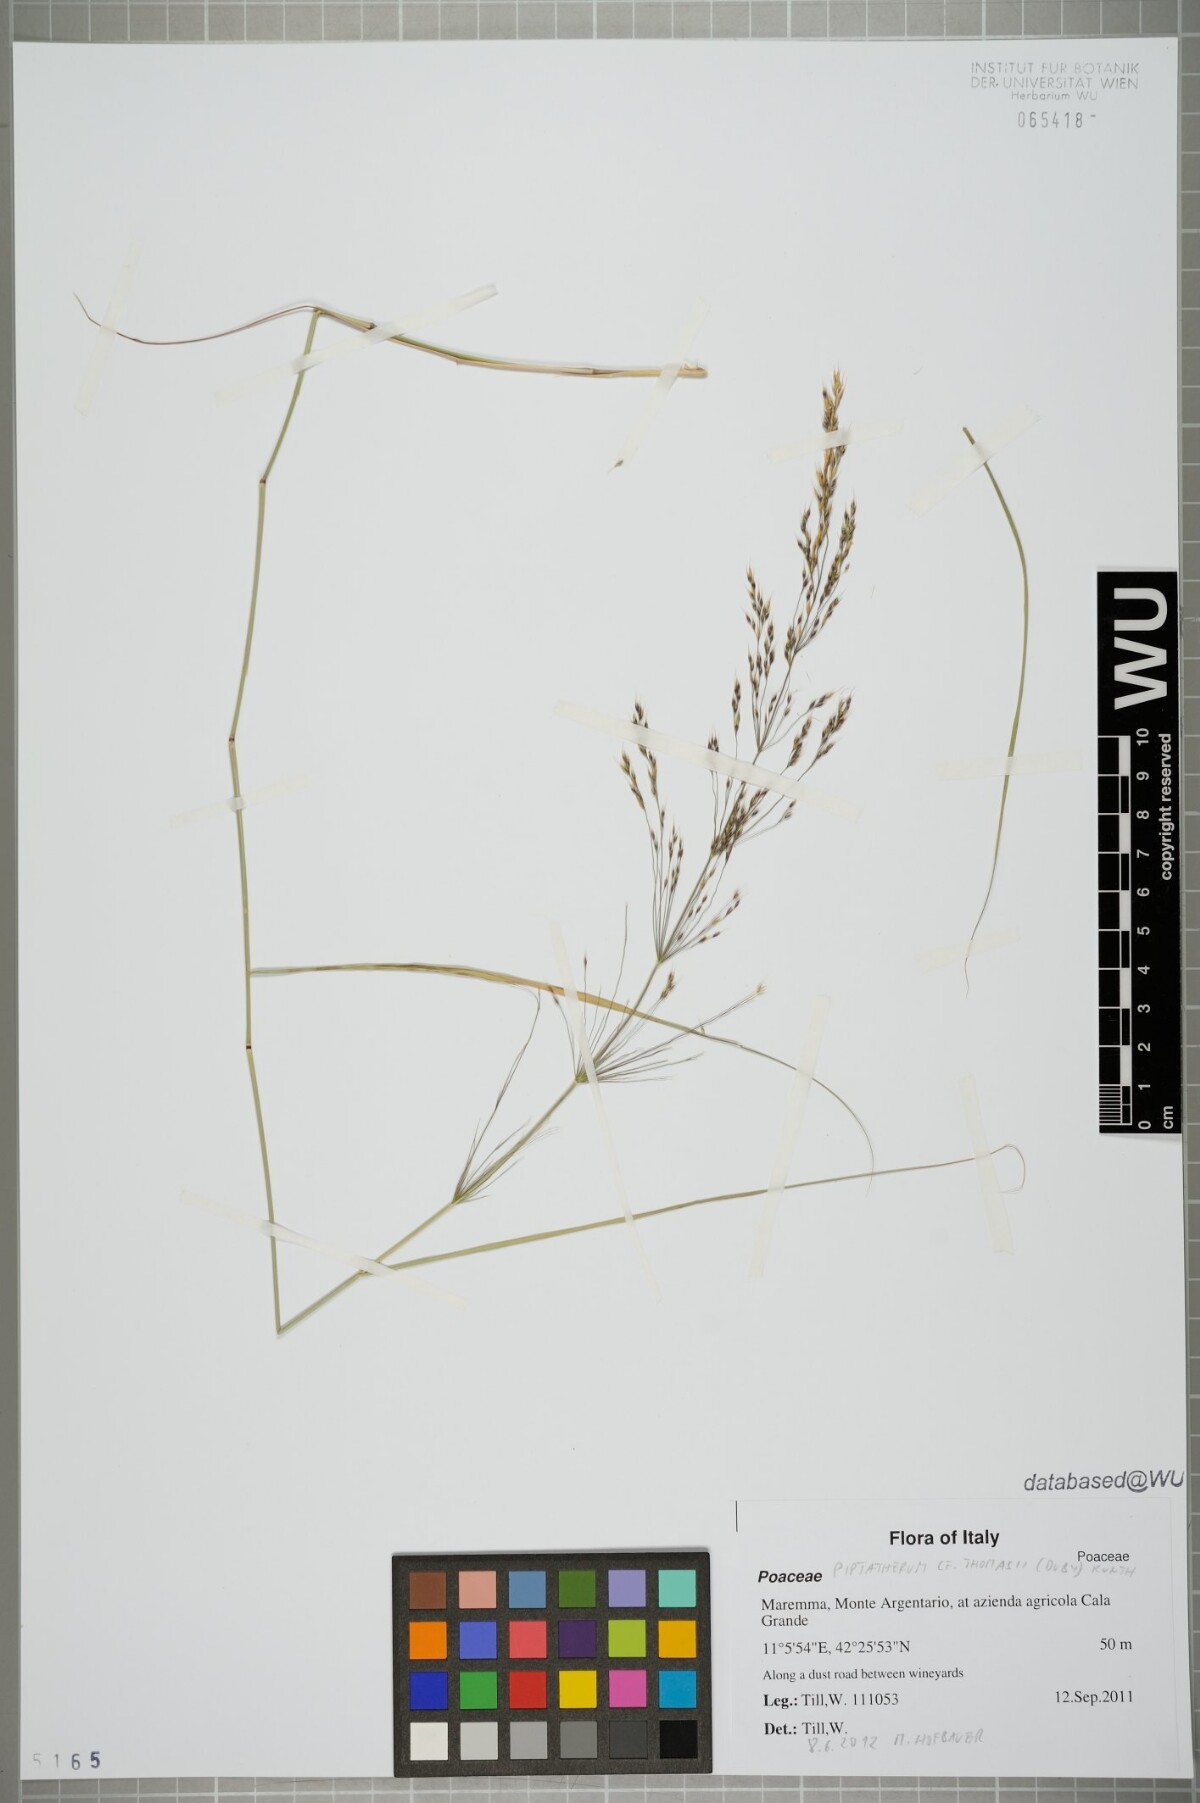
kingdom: Plantae
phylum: Tracheophyta
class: Liliopsida
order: Poales
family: Poaceae
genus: Oloptum
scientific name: Oloptum thomasii
